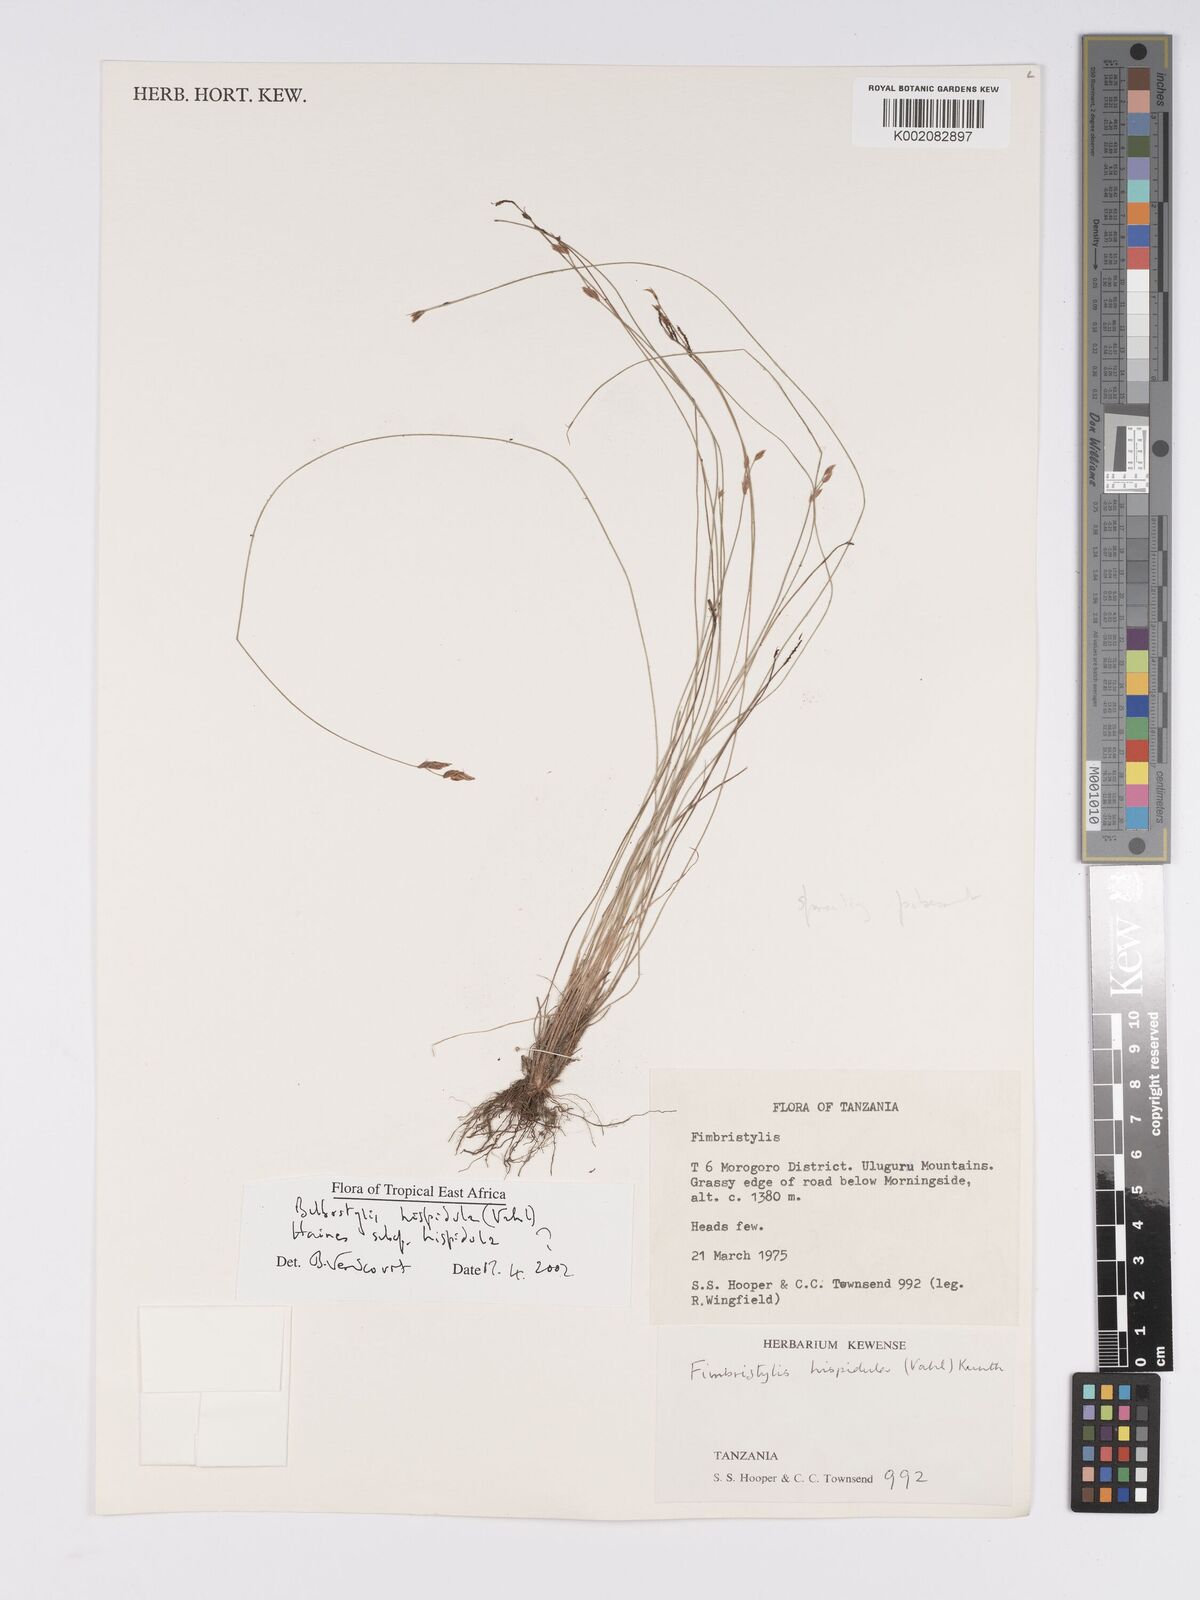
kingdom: Plantae
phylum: Tracheophyta
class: Liliopsida
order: Poales
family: Cyperaceae
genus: Bulbostylis
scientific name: Bulbostylis hispidula
